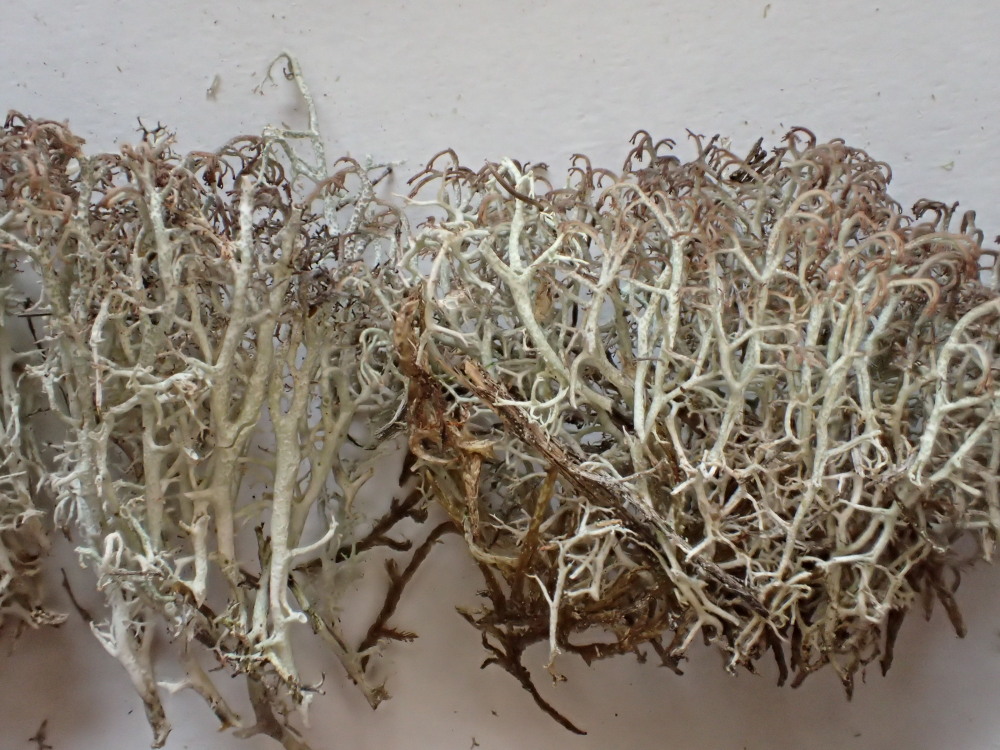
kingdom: Fungi
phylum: Ascomycota
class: Lecanoromycetes
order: Lecanorales
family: Cladoniaceae
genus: Cladonia
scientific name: Cladonia rangiferina
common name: askegrå rensdyrlav
